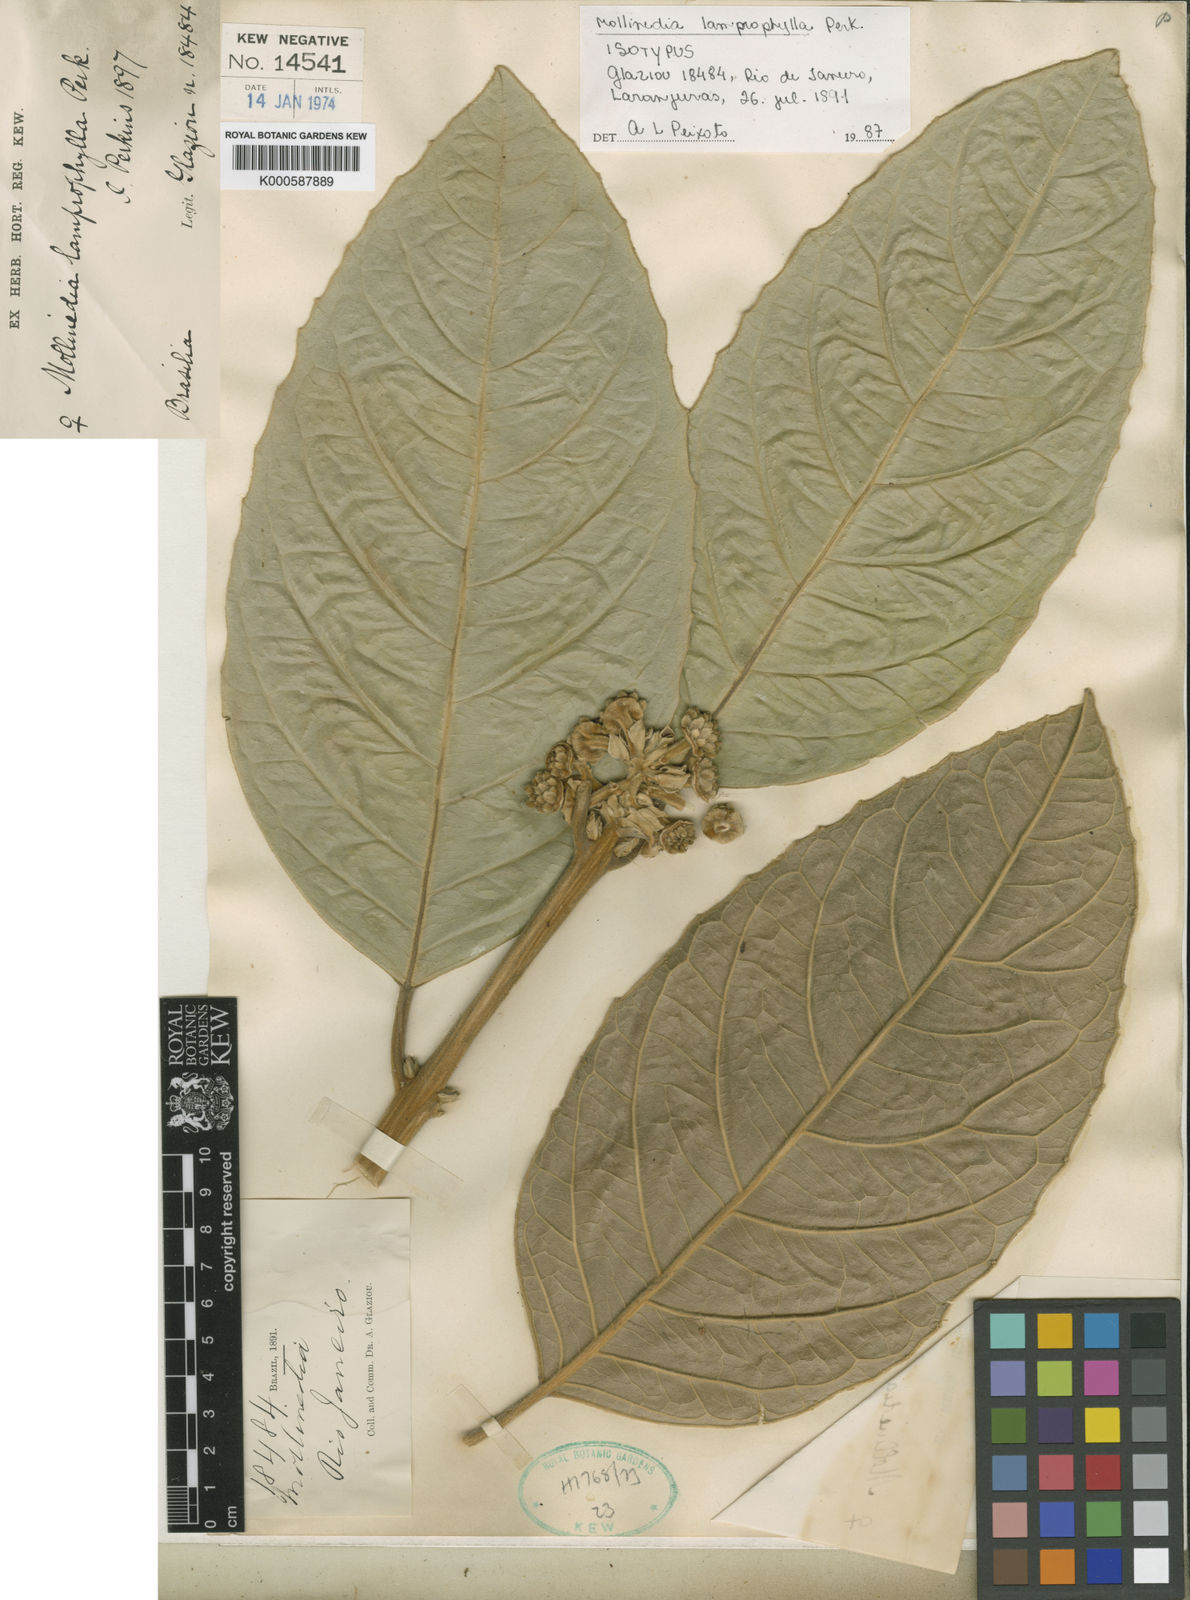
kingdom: Plantae
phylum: Tracheophyta
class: Magnoliopsida
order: Laurales
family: Monimiaceae
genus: Mollinedia
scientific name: Mollinedia lamprophylla
